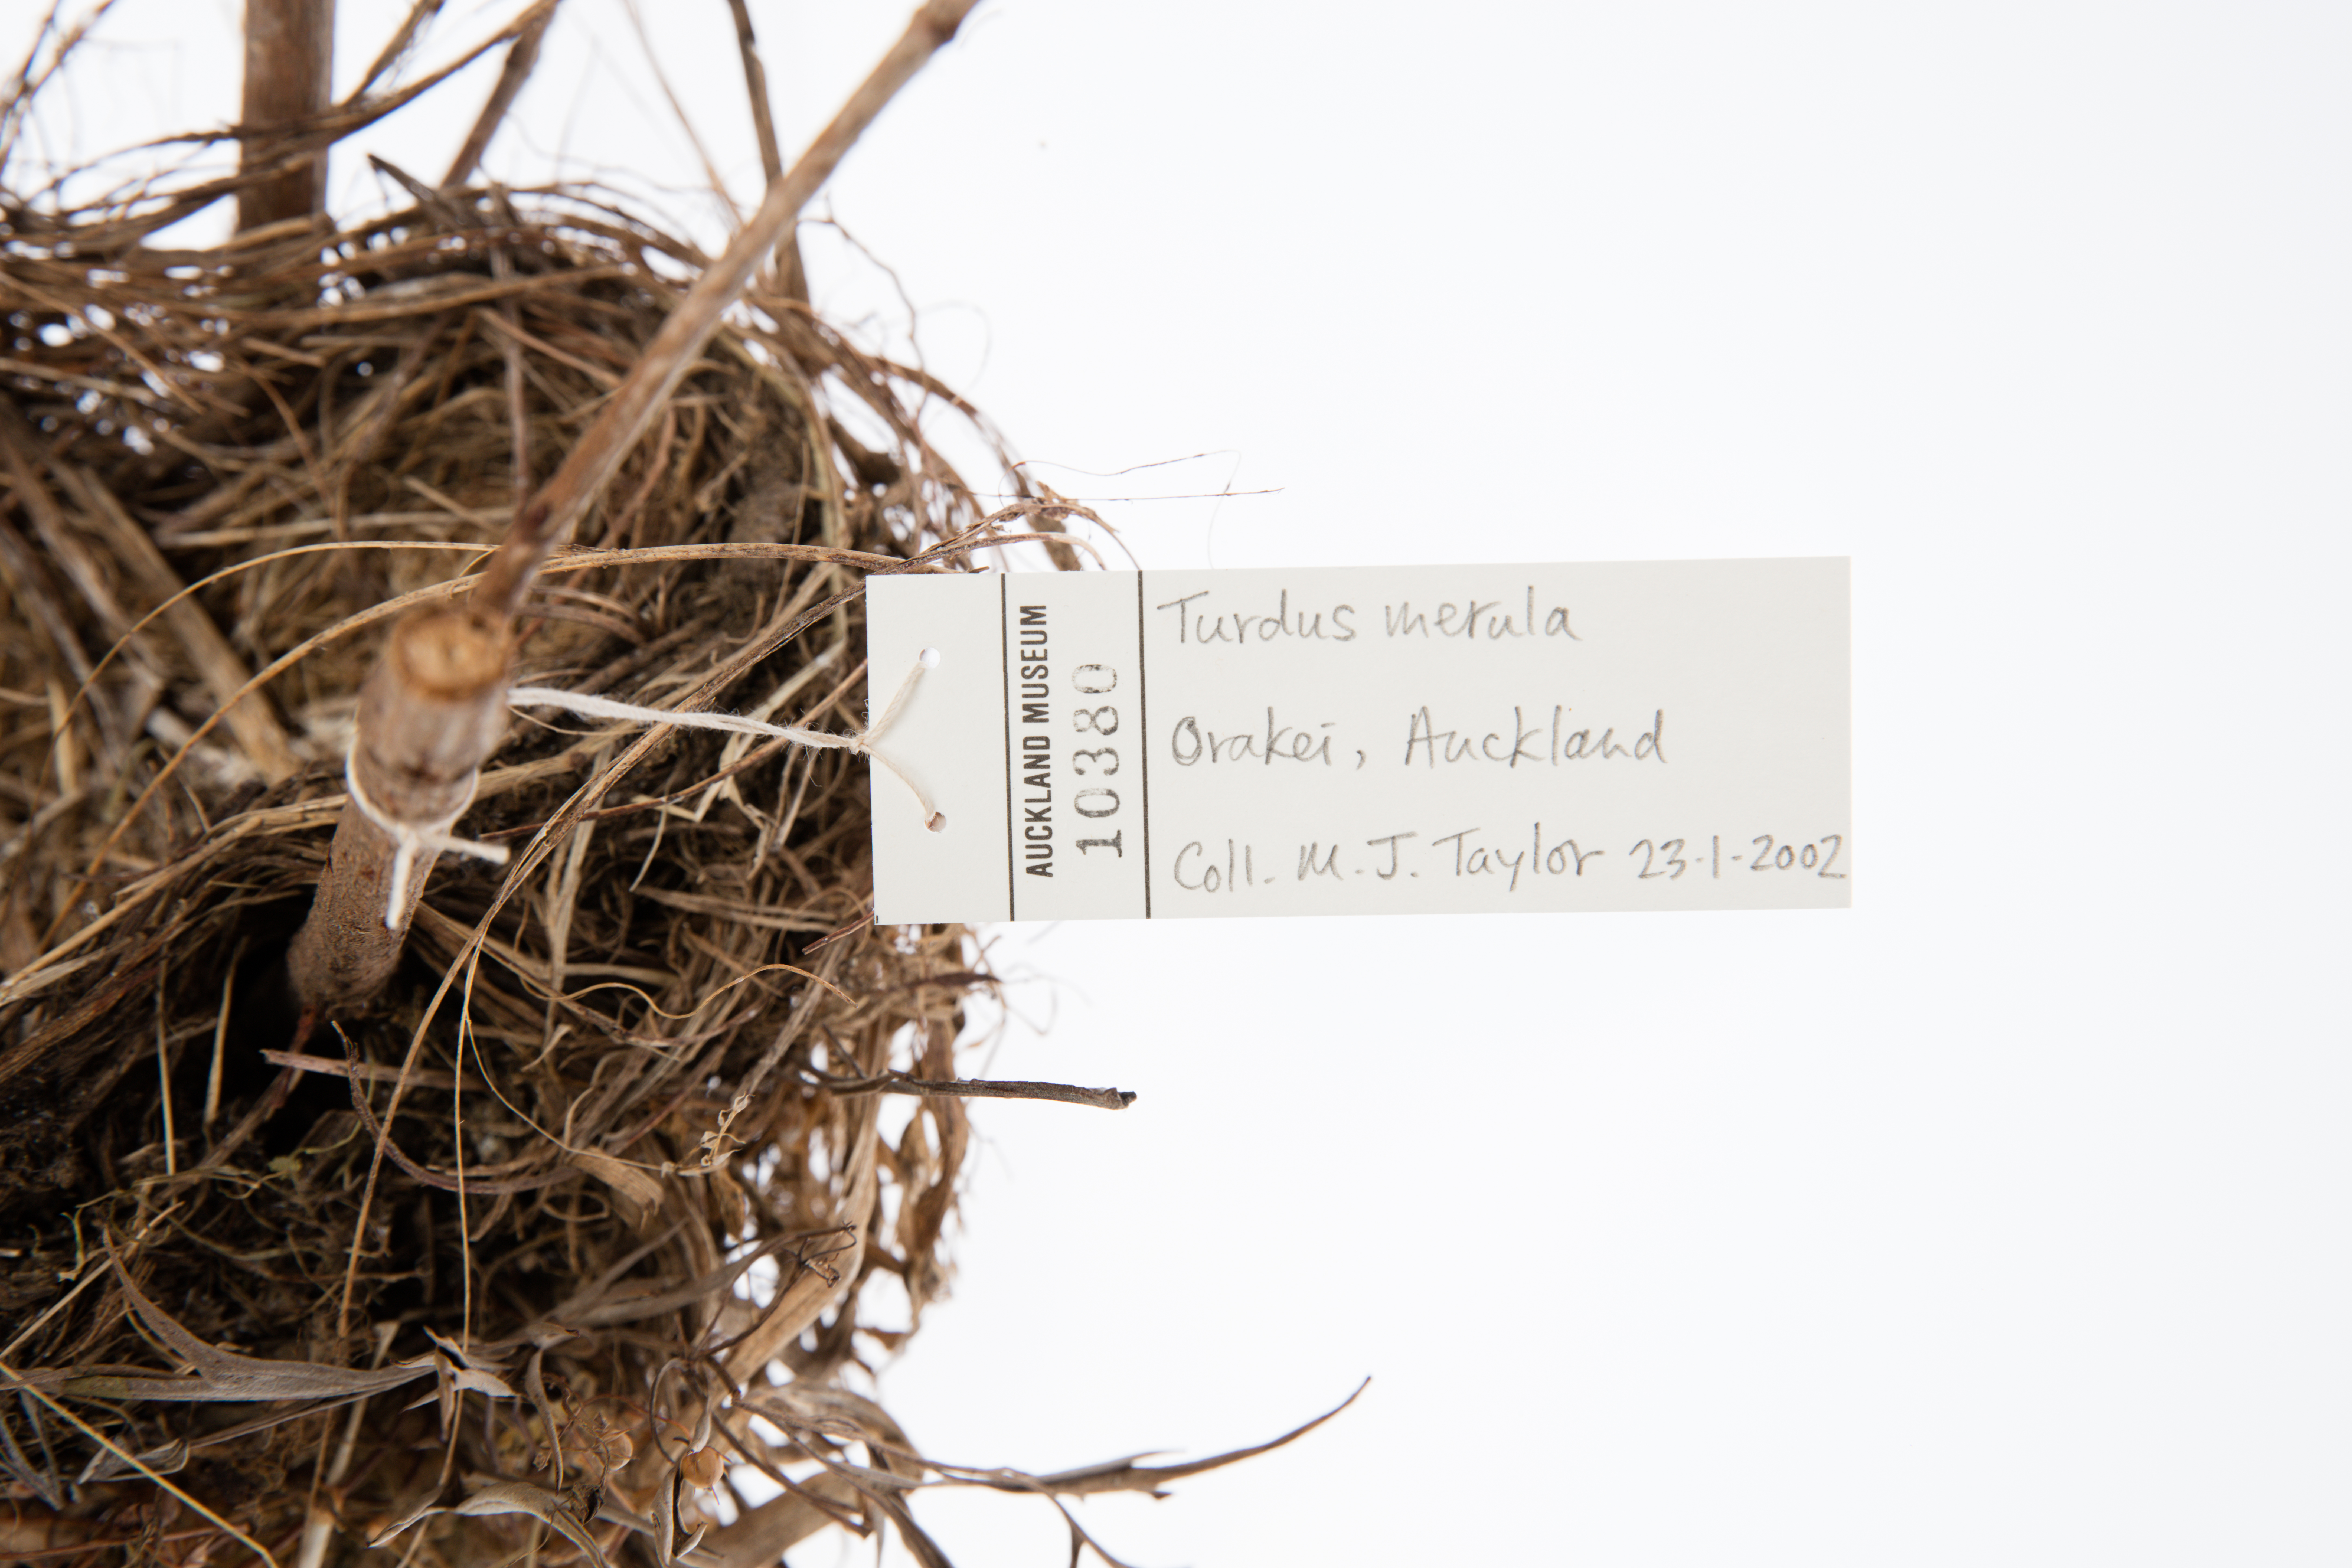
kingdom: Animalia
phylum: Chordata
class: Aves
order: Passeriformes
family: Turdidae
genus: Turdus
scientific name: Turdus merula
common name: Common blackbird
